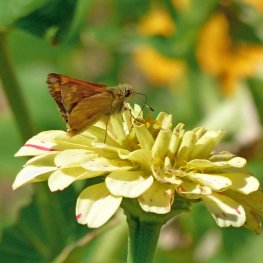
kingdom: Animalia
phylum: Arthropoda
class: Insecta
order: Lepidoptera
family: Hesperiidae
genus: Ochlodes
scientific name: Ochlodes sylvanoides
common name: Woodland Skipper
